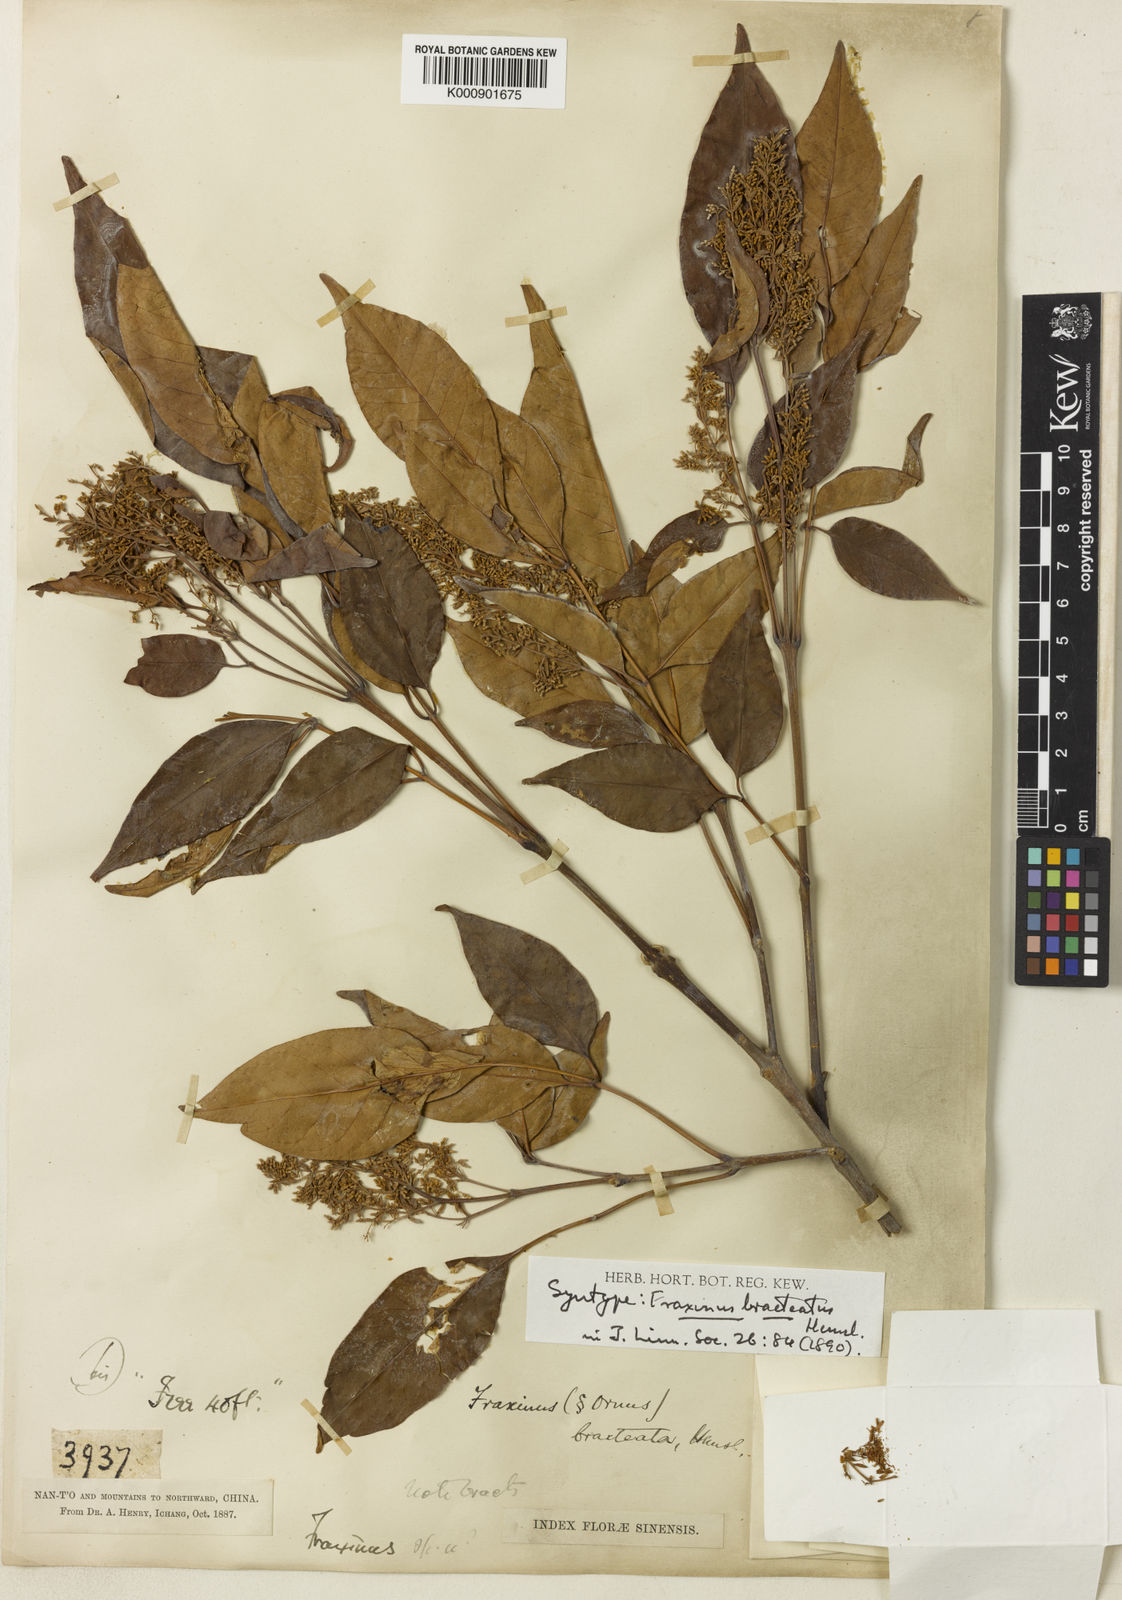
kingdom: Plantae
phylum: Tracheophyta
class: Magnoliopsida
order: Lamiales
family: Oleaceae
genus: Fraxinus
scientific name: Fraxinus griffithii
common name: Himalayan ash
